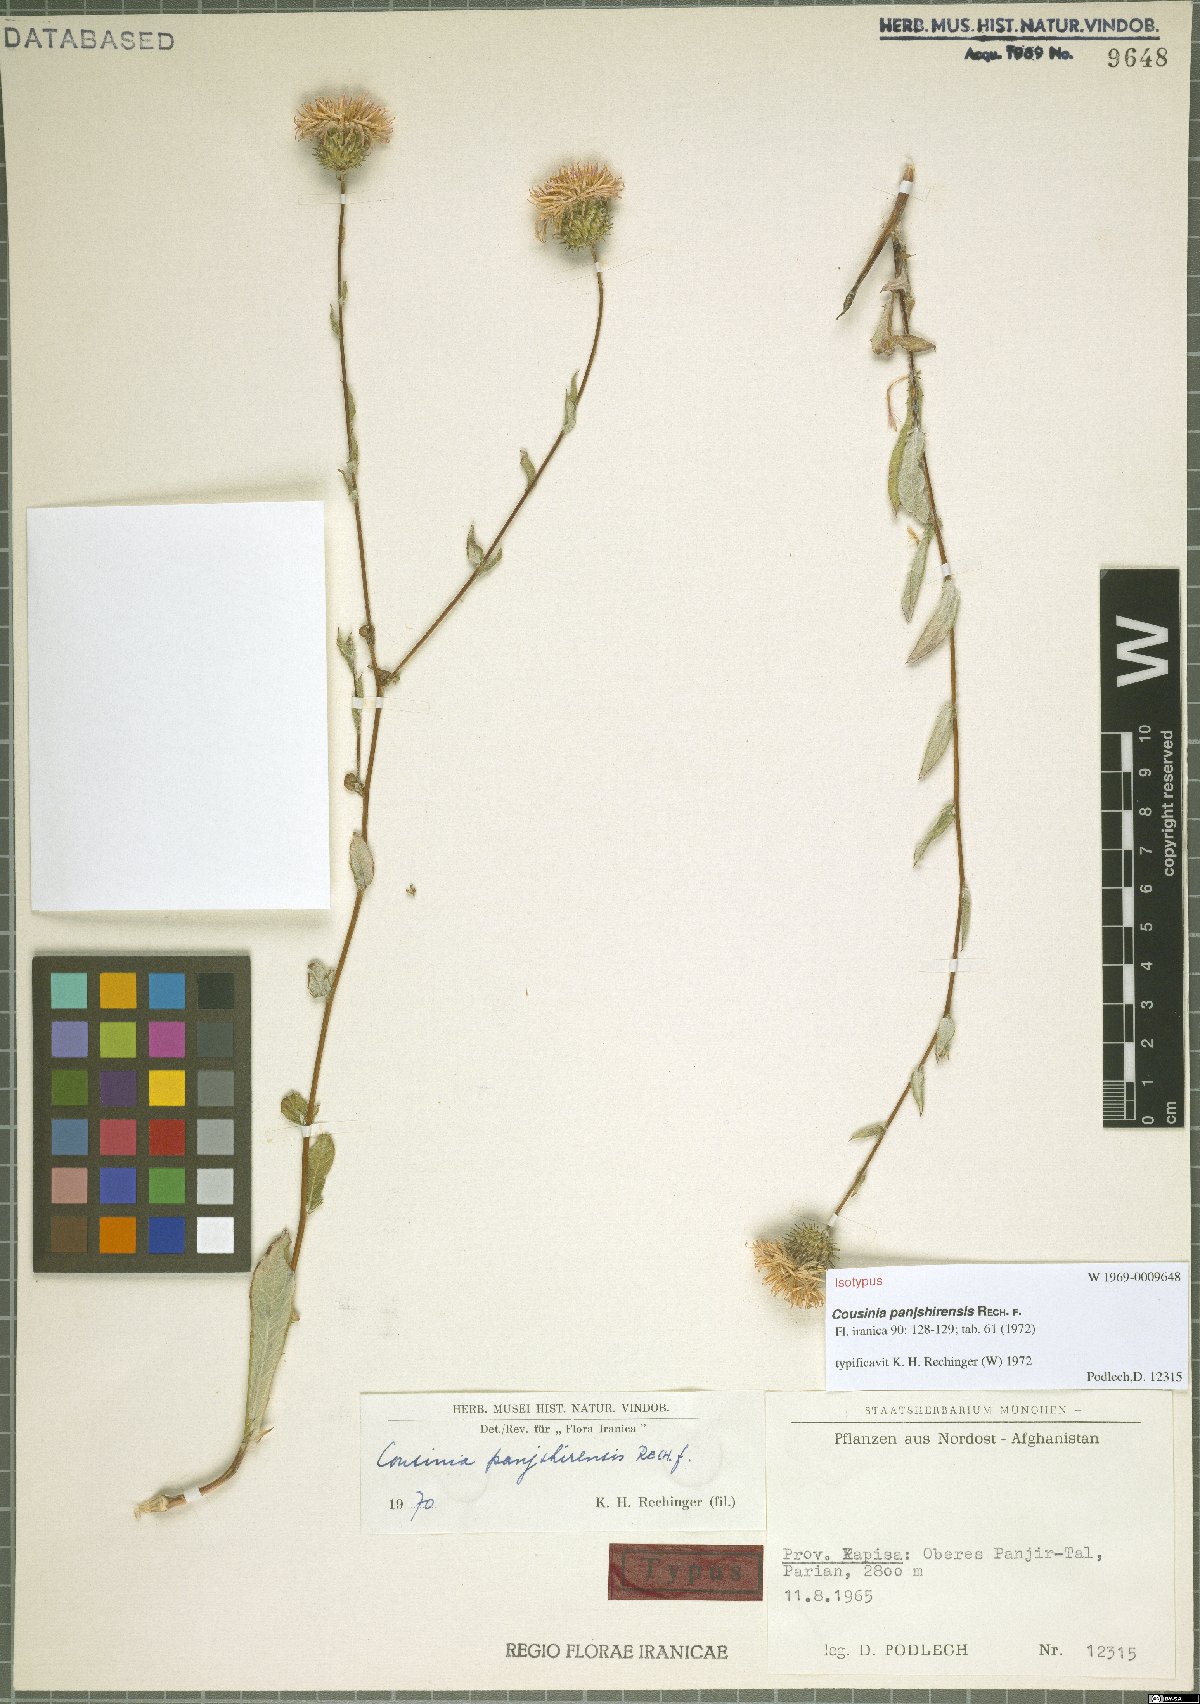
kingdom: Plantae
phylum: Tracheophyta
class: Magnoliopsida
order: Asterales
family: Asteraceae
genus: Cousinia
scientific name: Cousinia panjshirensis
